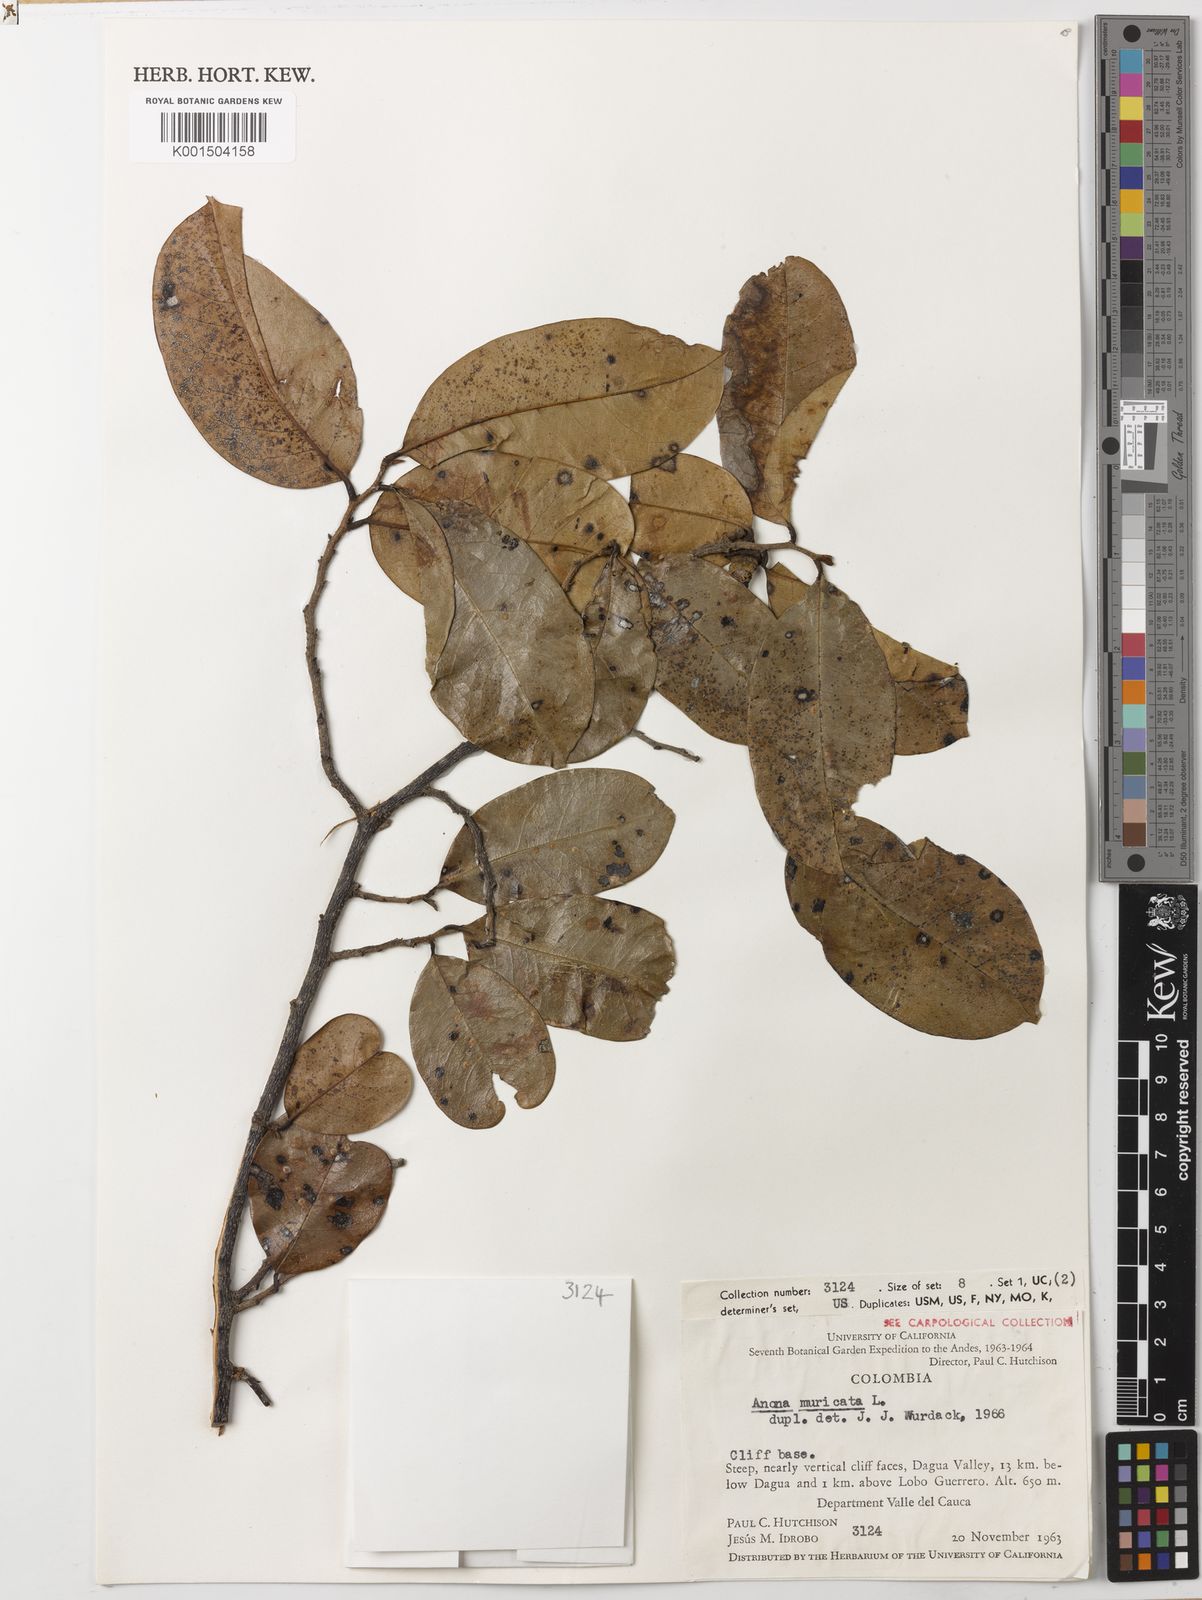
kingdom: Plantae
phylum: Tracheophyta
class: Magnoliopsida
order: Magnoliales
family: Annonaceae
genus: Annona
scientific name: Annona muricata
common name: Soursop
